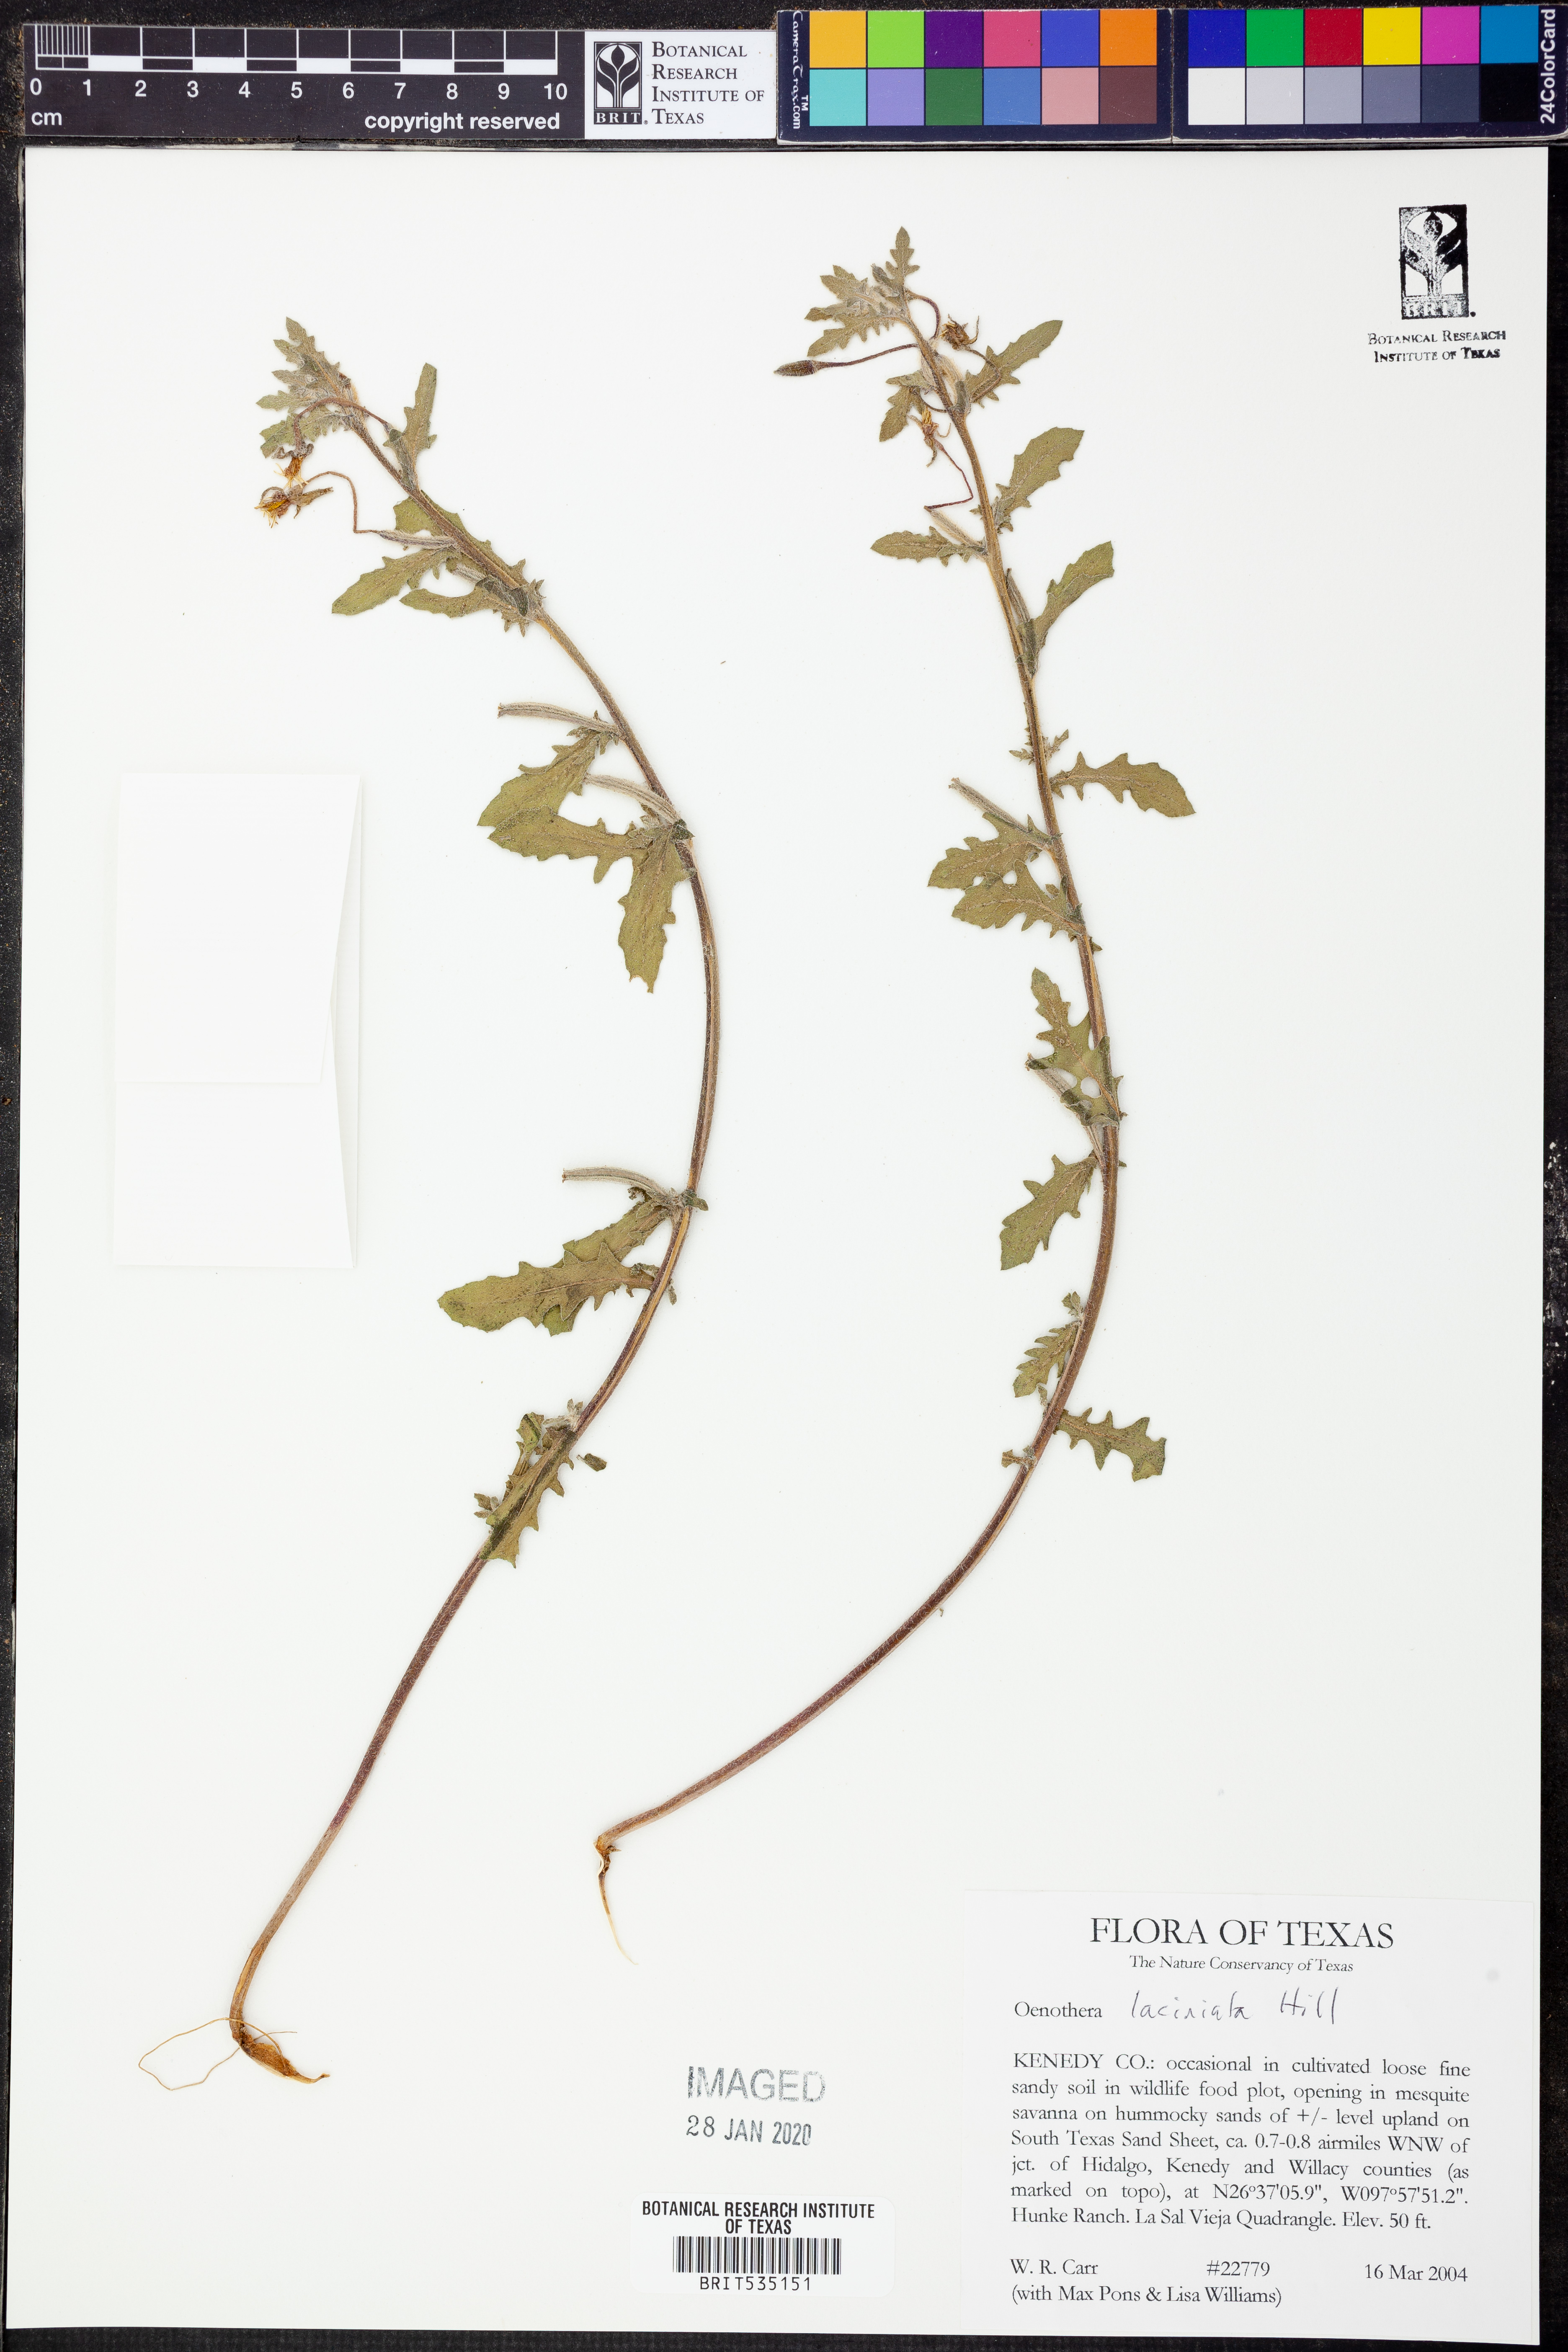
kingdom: Plantae
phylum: Tracheophyta
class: Magnoliopsida
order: Myrtales
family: Onagraceae
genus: Oenothera
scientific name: Oenothera laciniata
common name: Cut-leaved evening-primrose
